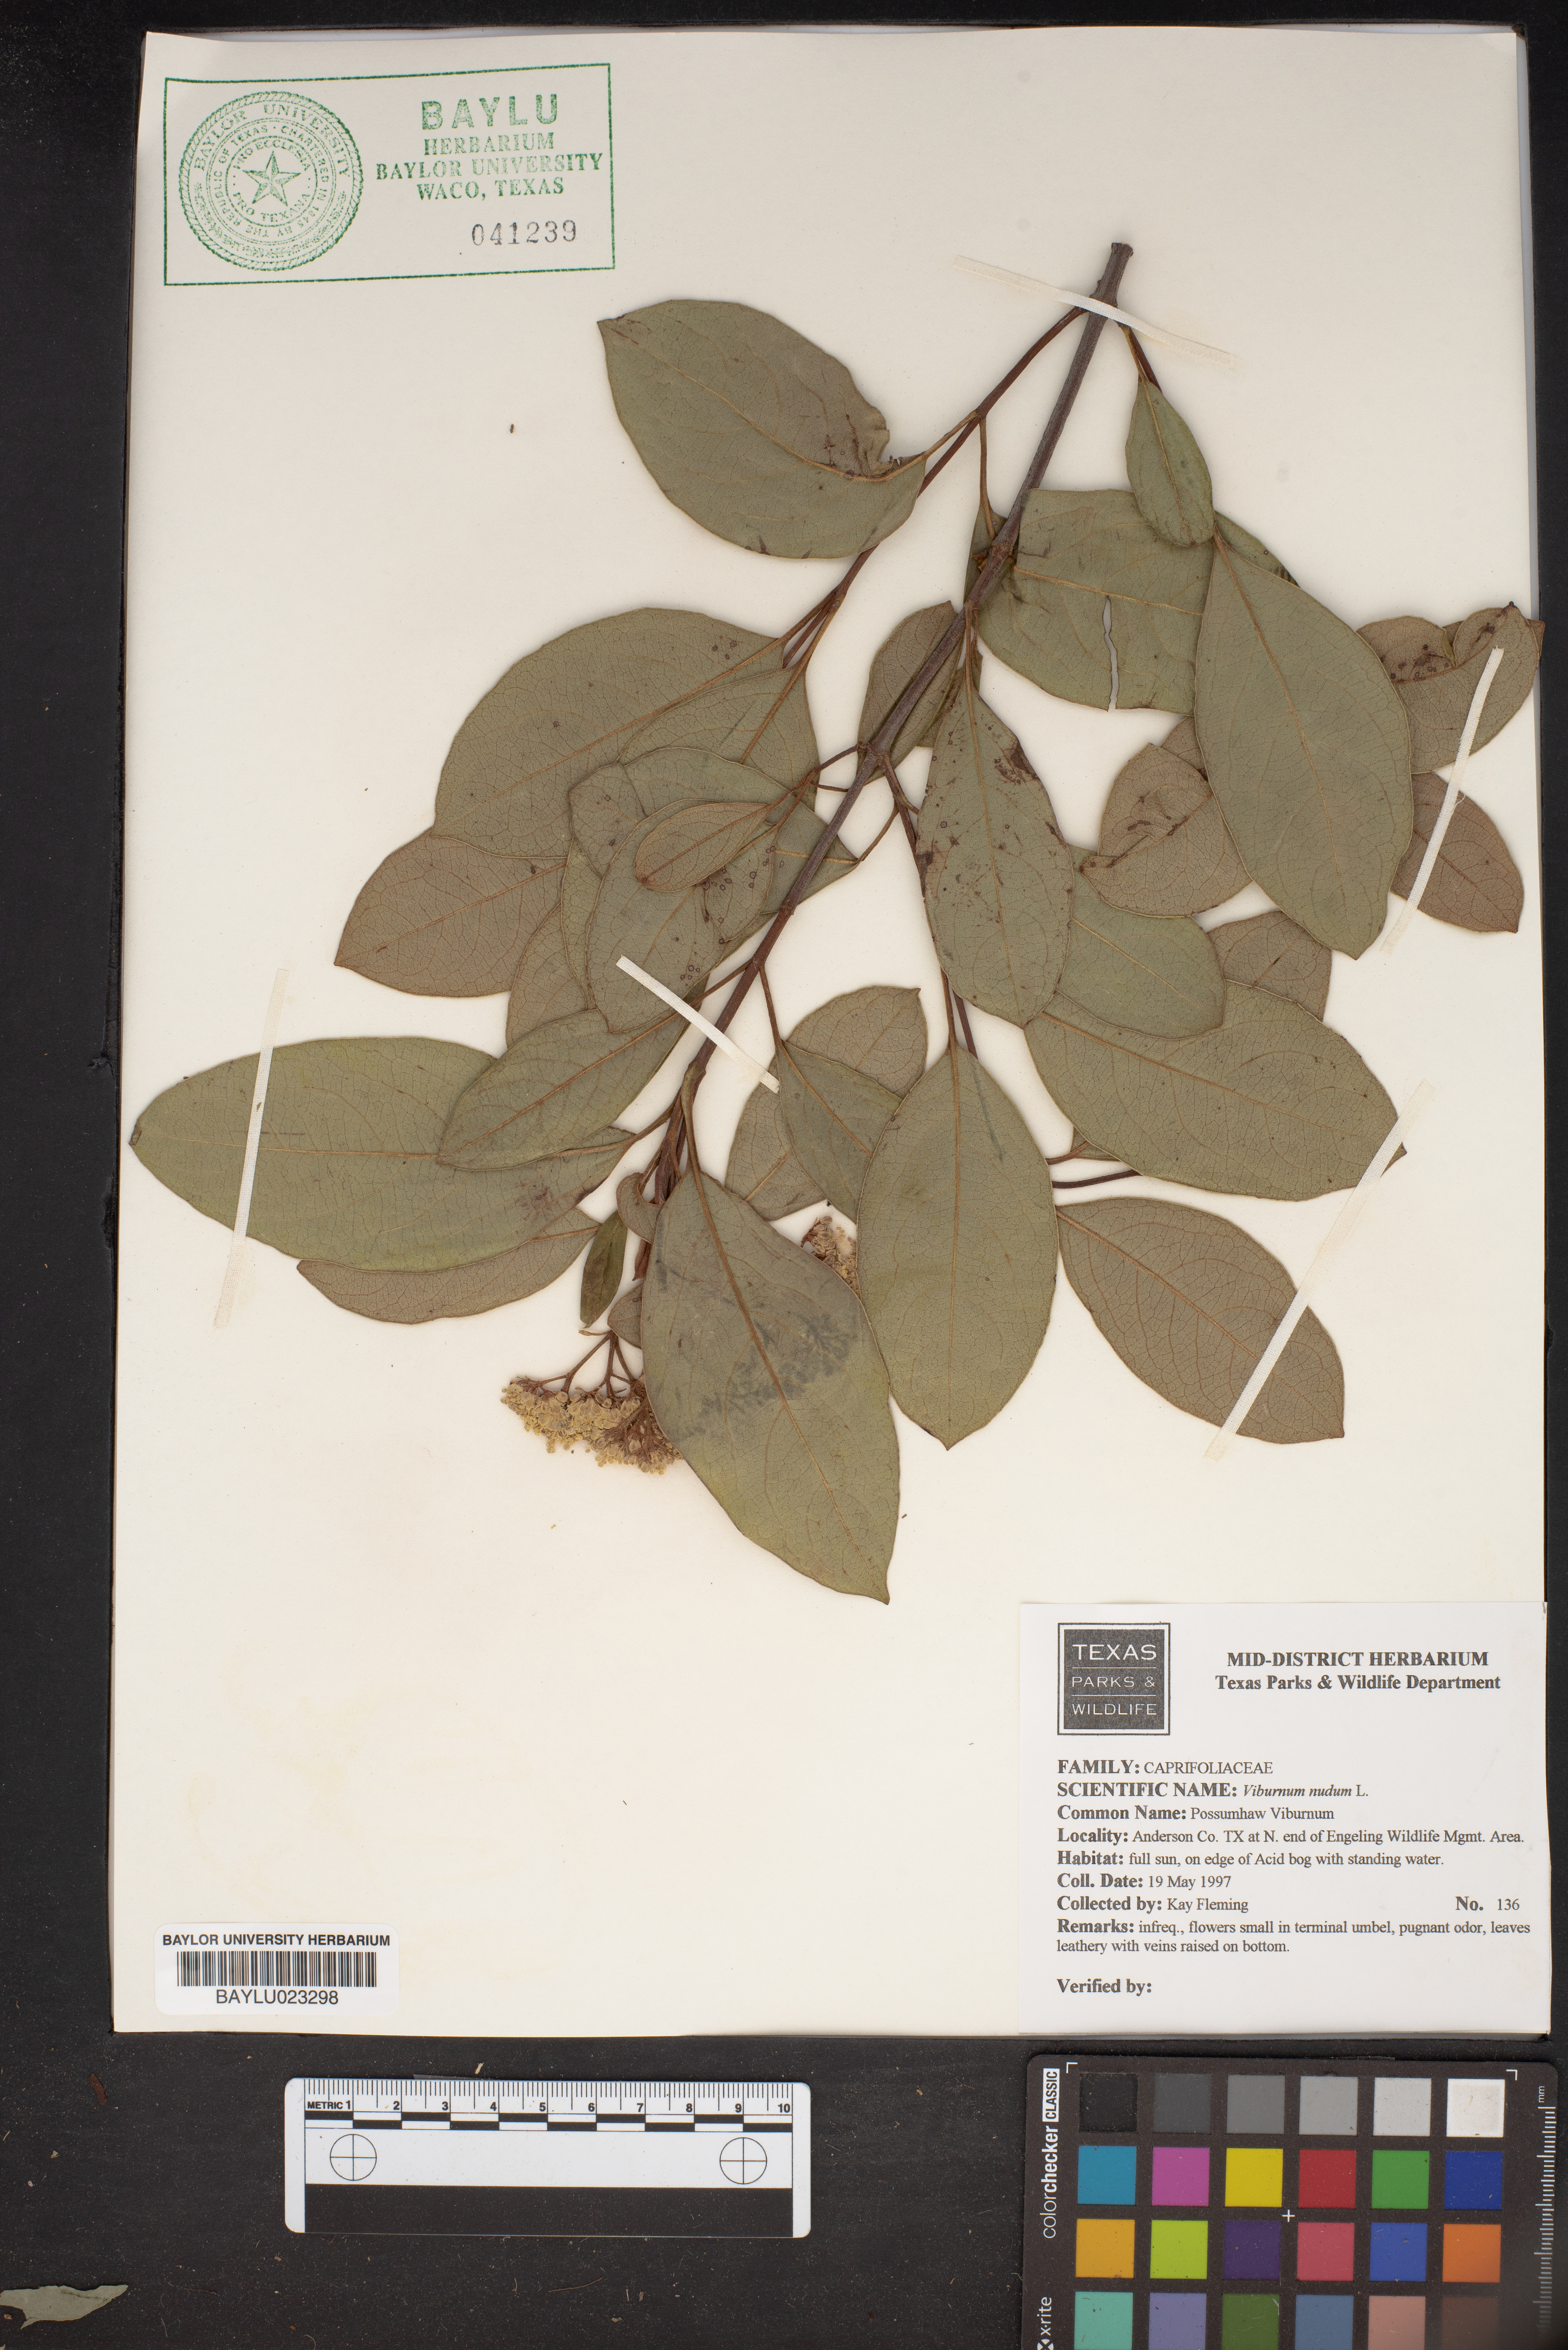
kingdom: Plantae
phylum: Tracheophyta
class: Magnoliopsida
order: Dipsacales
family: Viburnaceae
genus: Viburnum
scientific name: Viburnum nudum
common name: Possum haw
